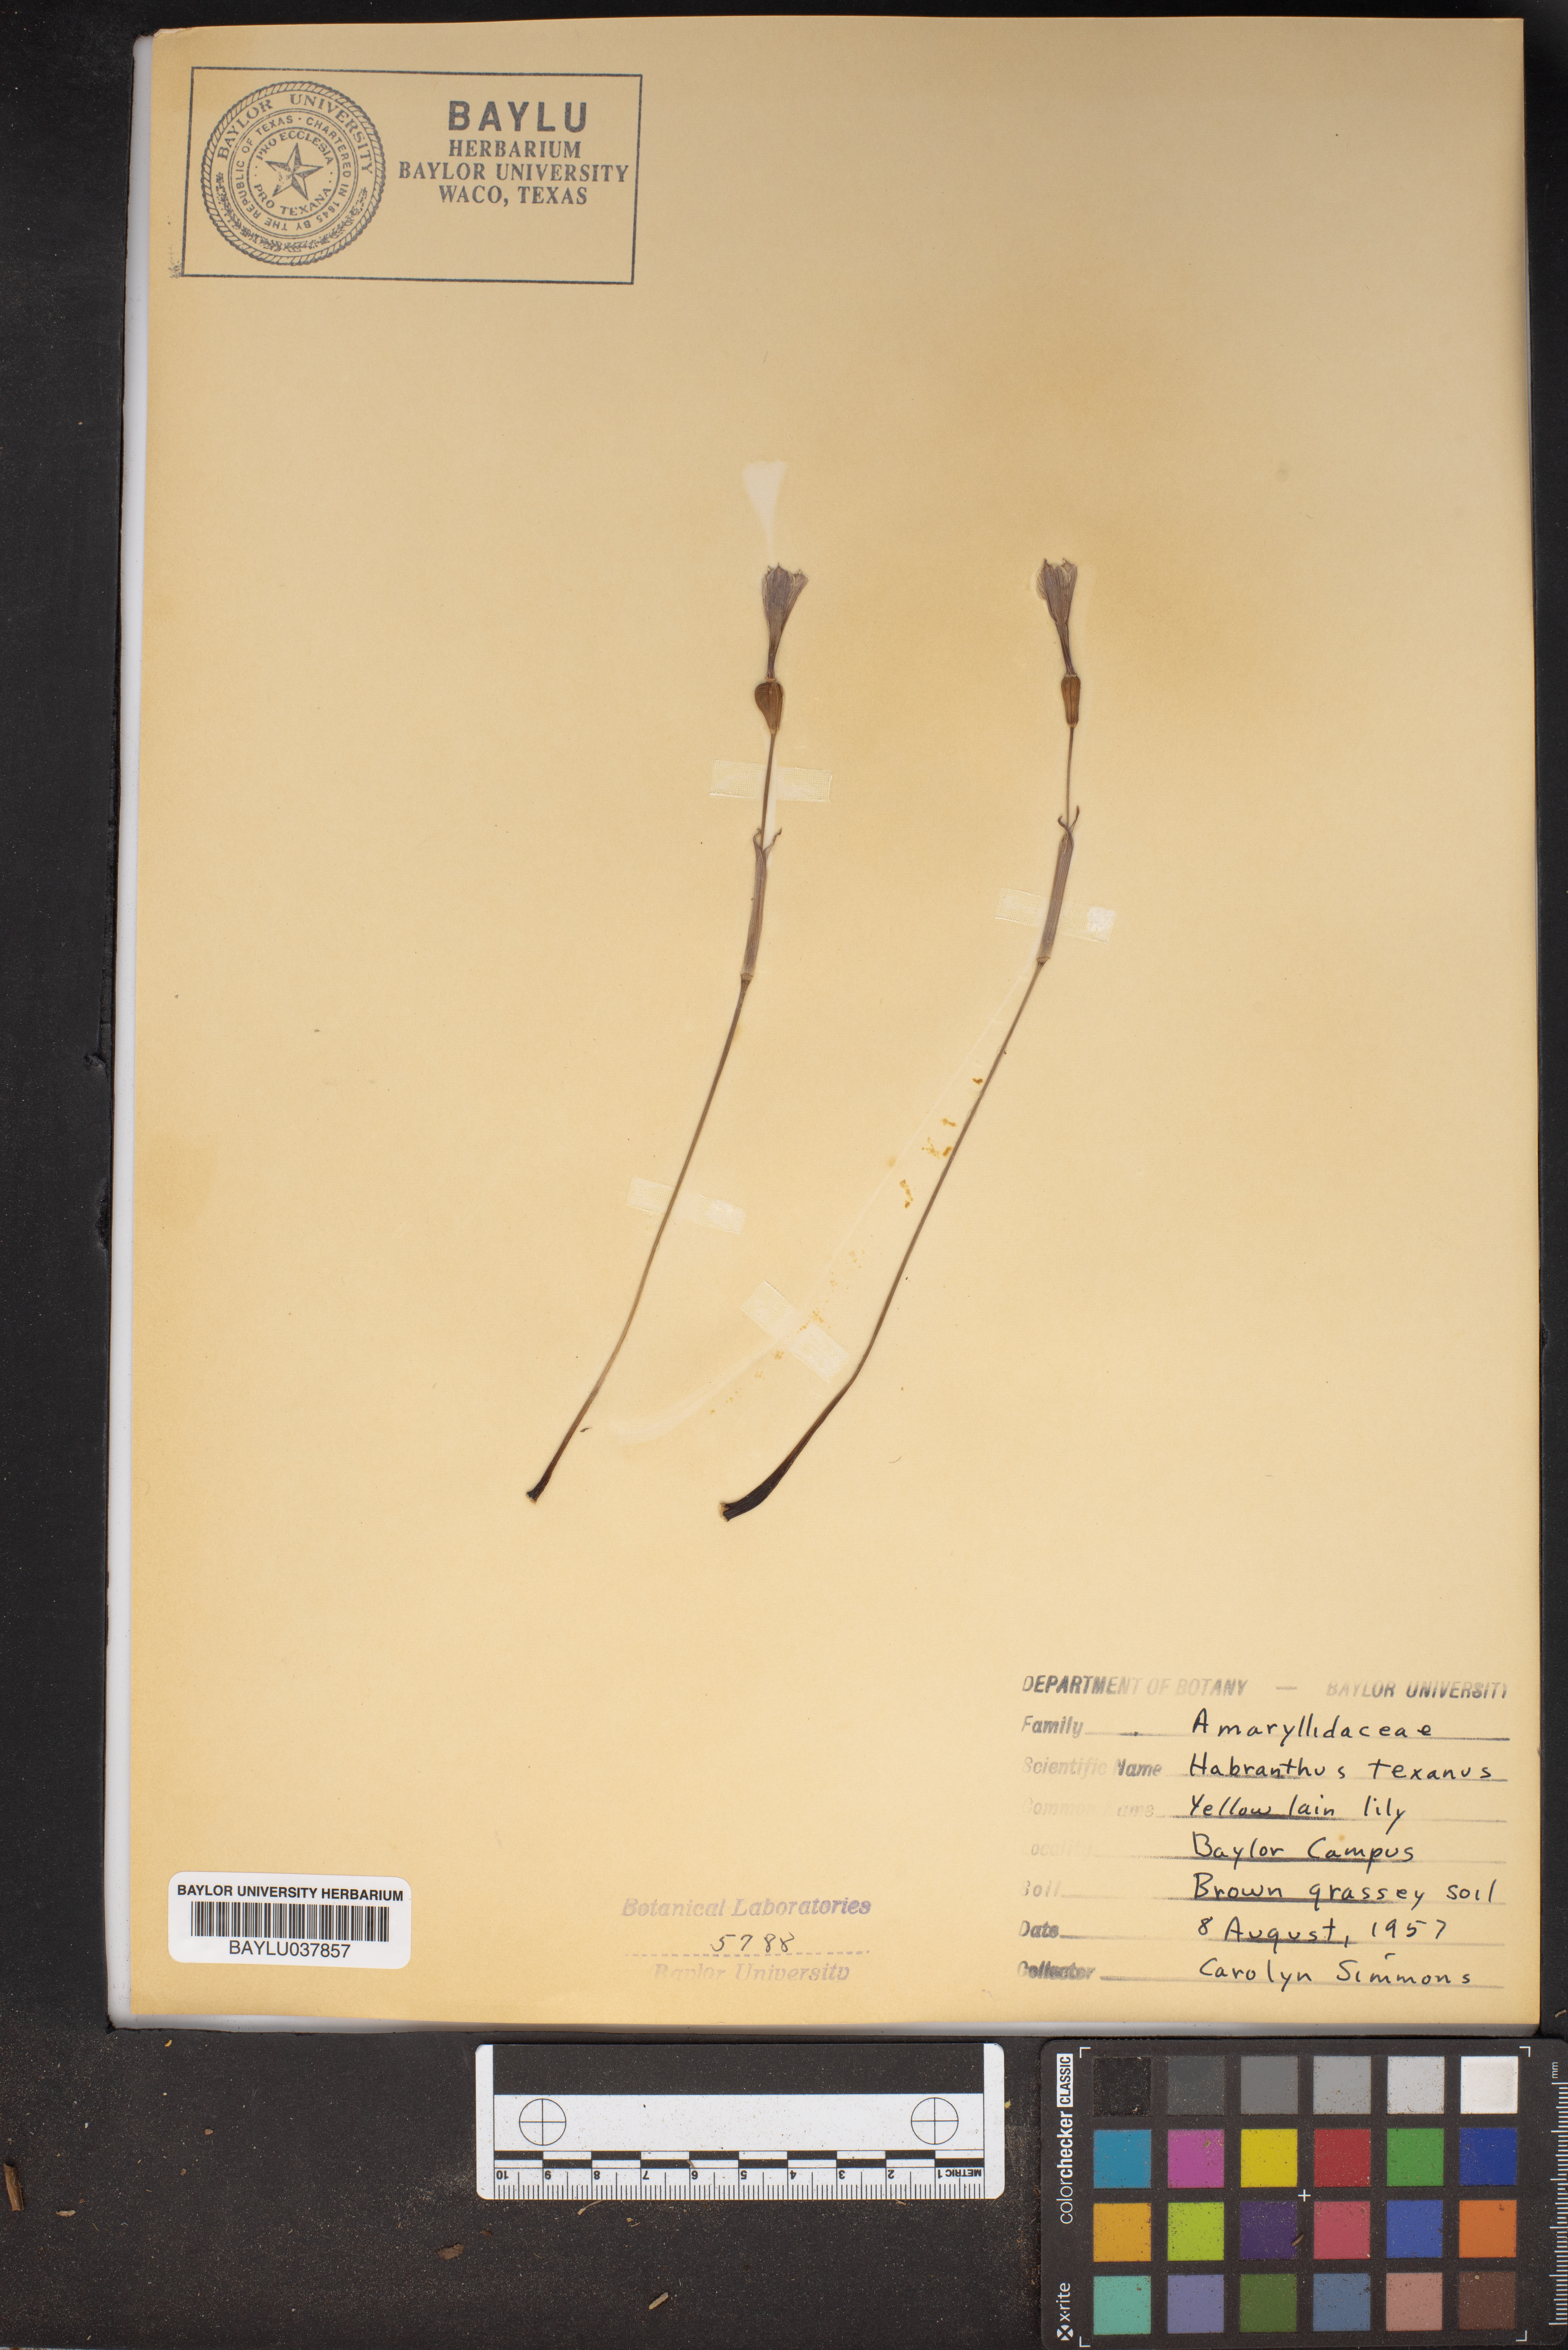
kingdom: Plantae
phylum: Tracheophyta
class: Liliopsida
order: Asparagales
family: Amaryllidaceae
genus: Zephyranthes
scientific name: Zephyranthes tubispatha
